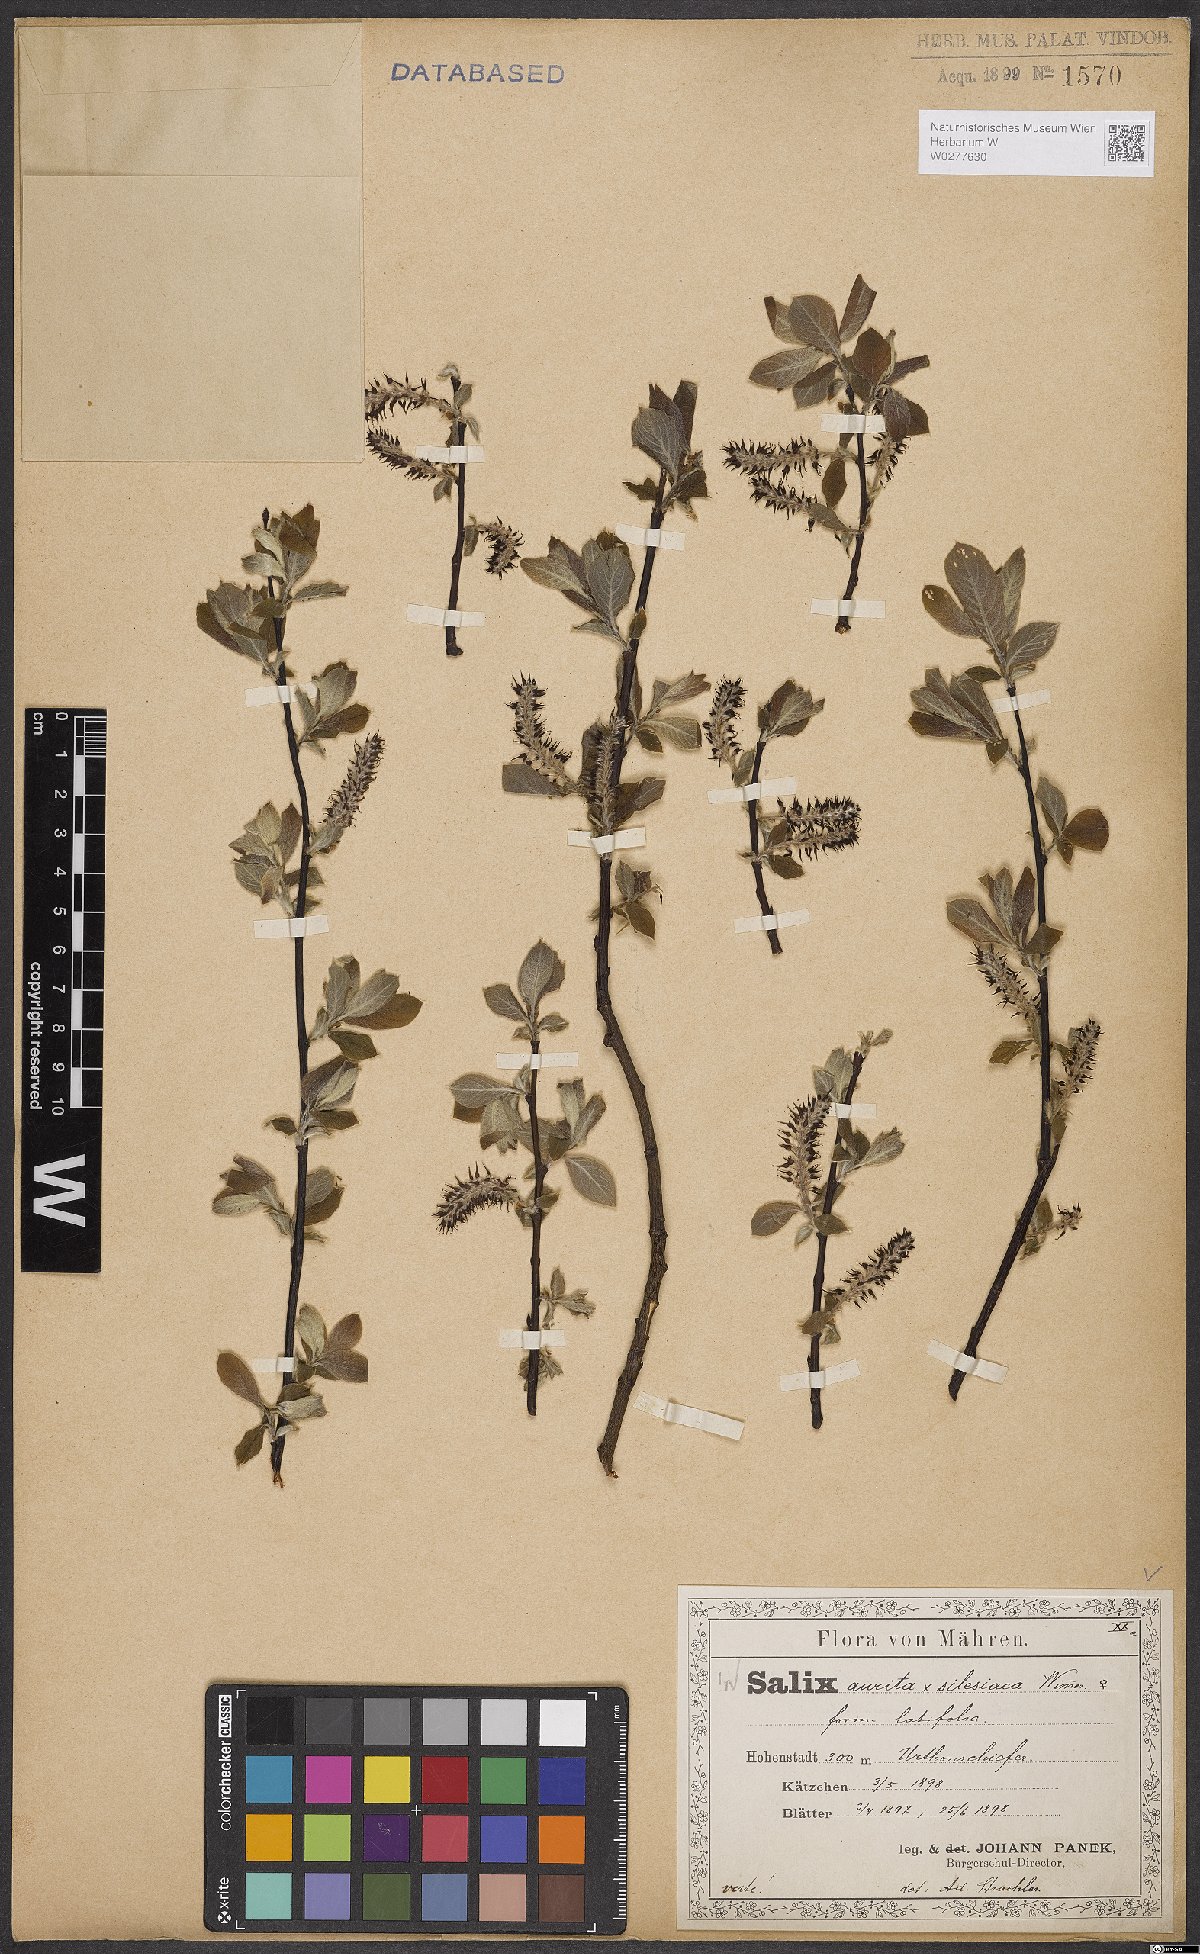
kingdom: Plantae
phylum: Tracheophyta
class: Magnoliopsida
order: Malpighiales
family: Salicaceae
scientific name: Salicaceae
